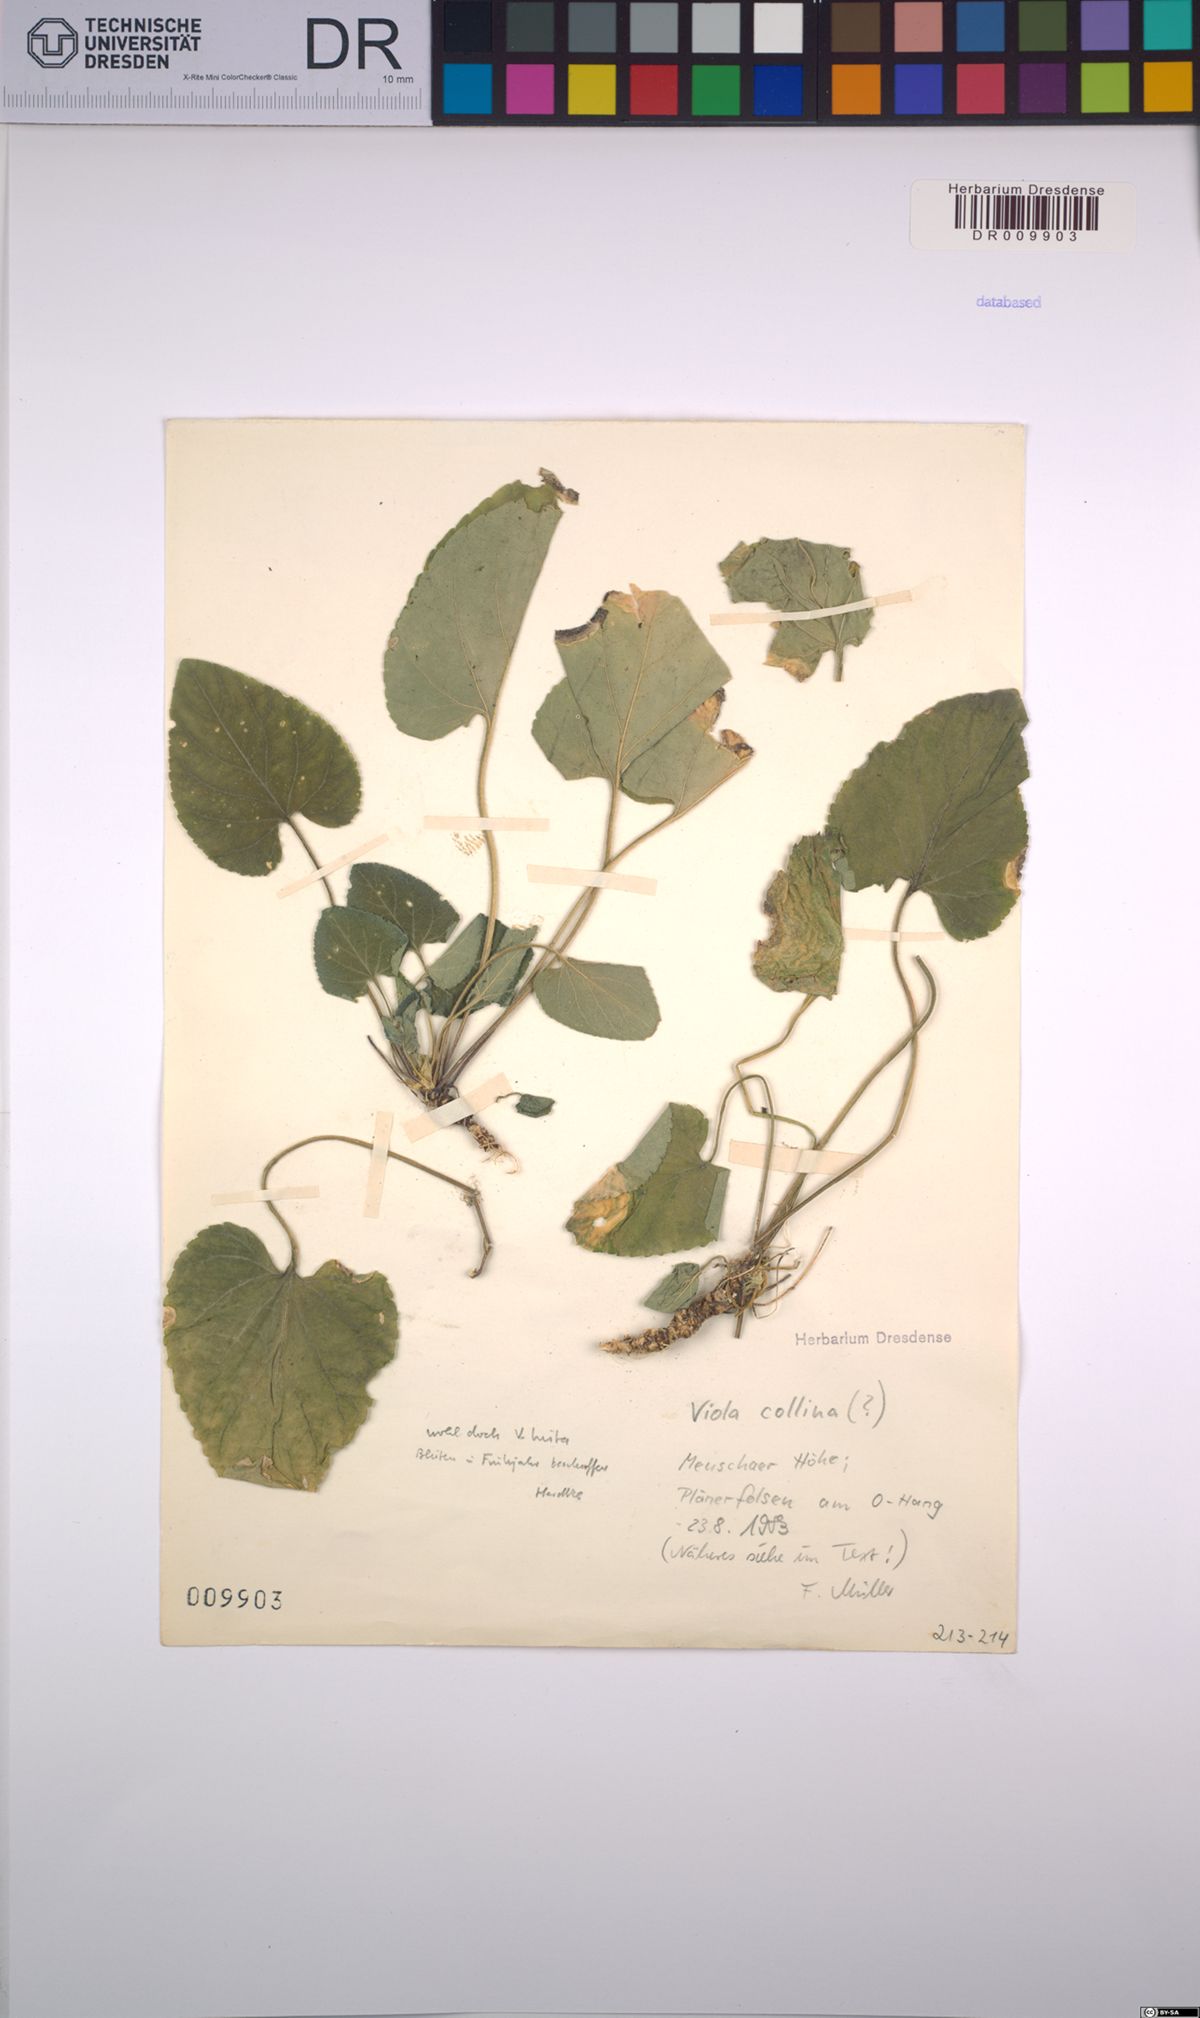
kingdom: Plantae
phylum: Tracheophyta
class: Magnoliopsida
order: Malpighiales
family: Violaceae
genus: Viola
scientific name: Viola hirta
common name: Hairy violet
